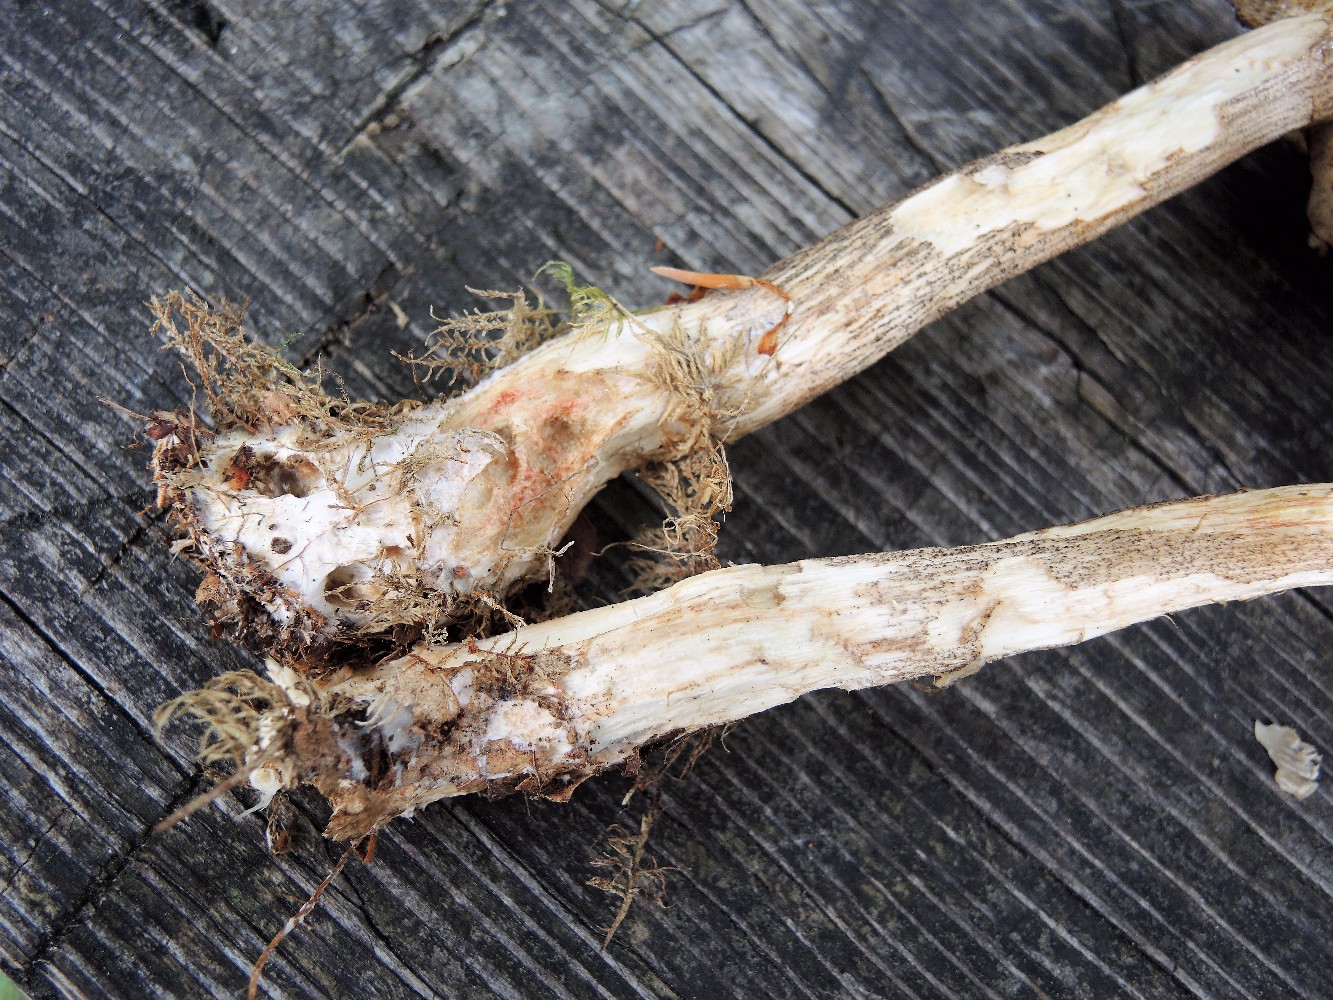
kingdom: Fungi
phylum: Basidiomycota
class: Agaricomycetes
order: Boletales
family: Boletaceae
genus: Leccinum
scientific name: Leccinum
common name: skælrørhat
